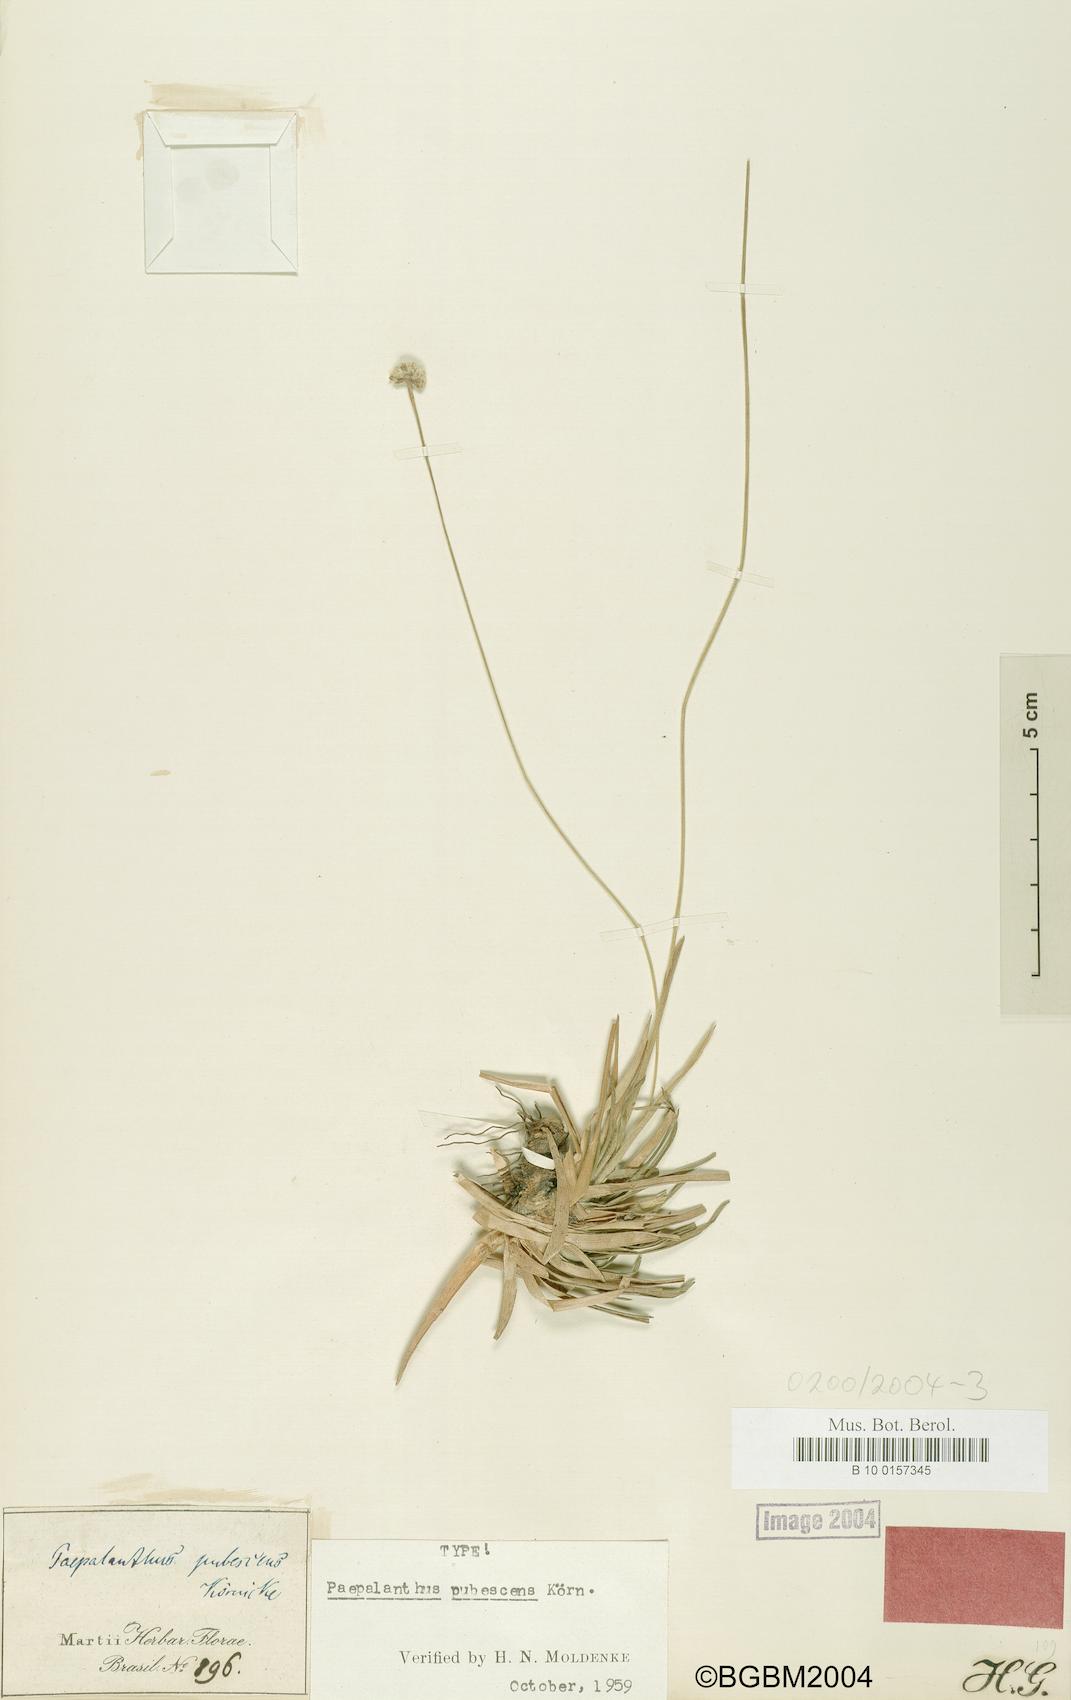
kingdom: Plantae
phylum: Tracheophyta
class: Liliopsida
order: Poales
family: Eriocaulaceae
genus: Paepalanthus
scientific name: Paepalanthus pubescens
